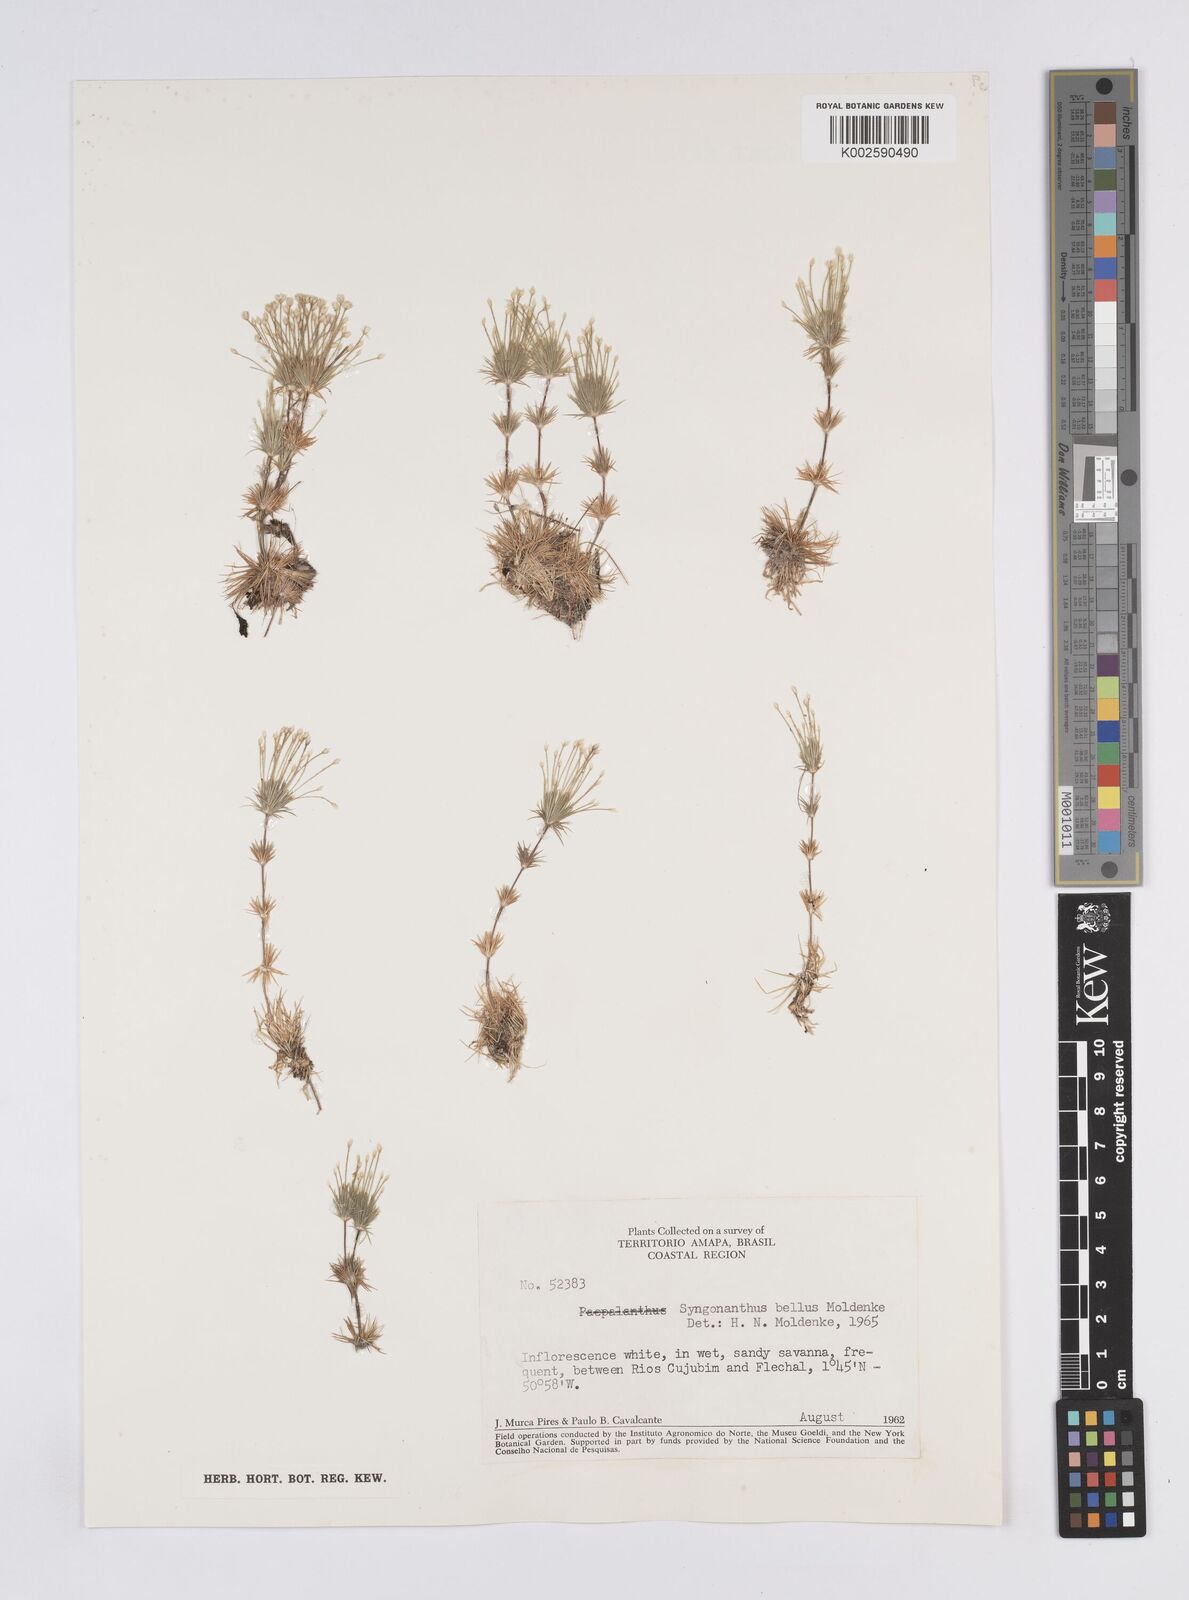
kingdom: Plantae
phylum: Tracheophyta
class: Liliopsida
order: Poales
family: Eriocaulaceae
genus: Syngonanthus
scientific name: Syngonanthus bellus
